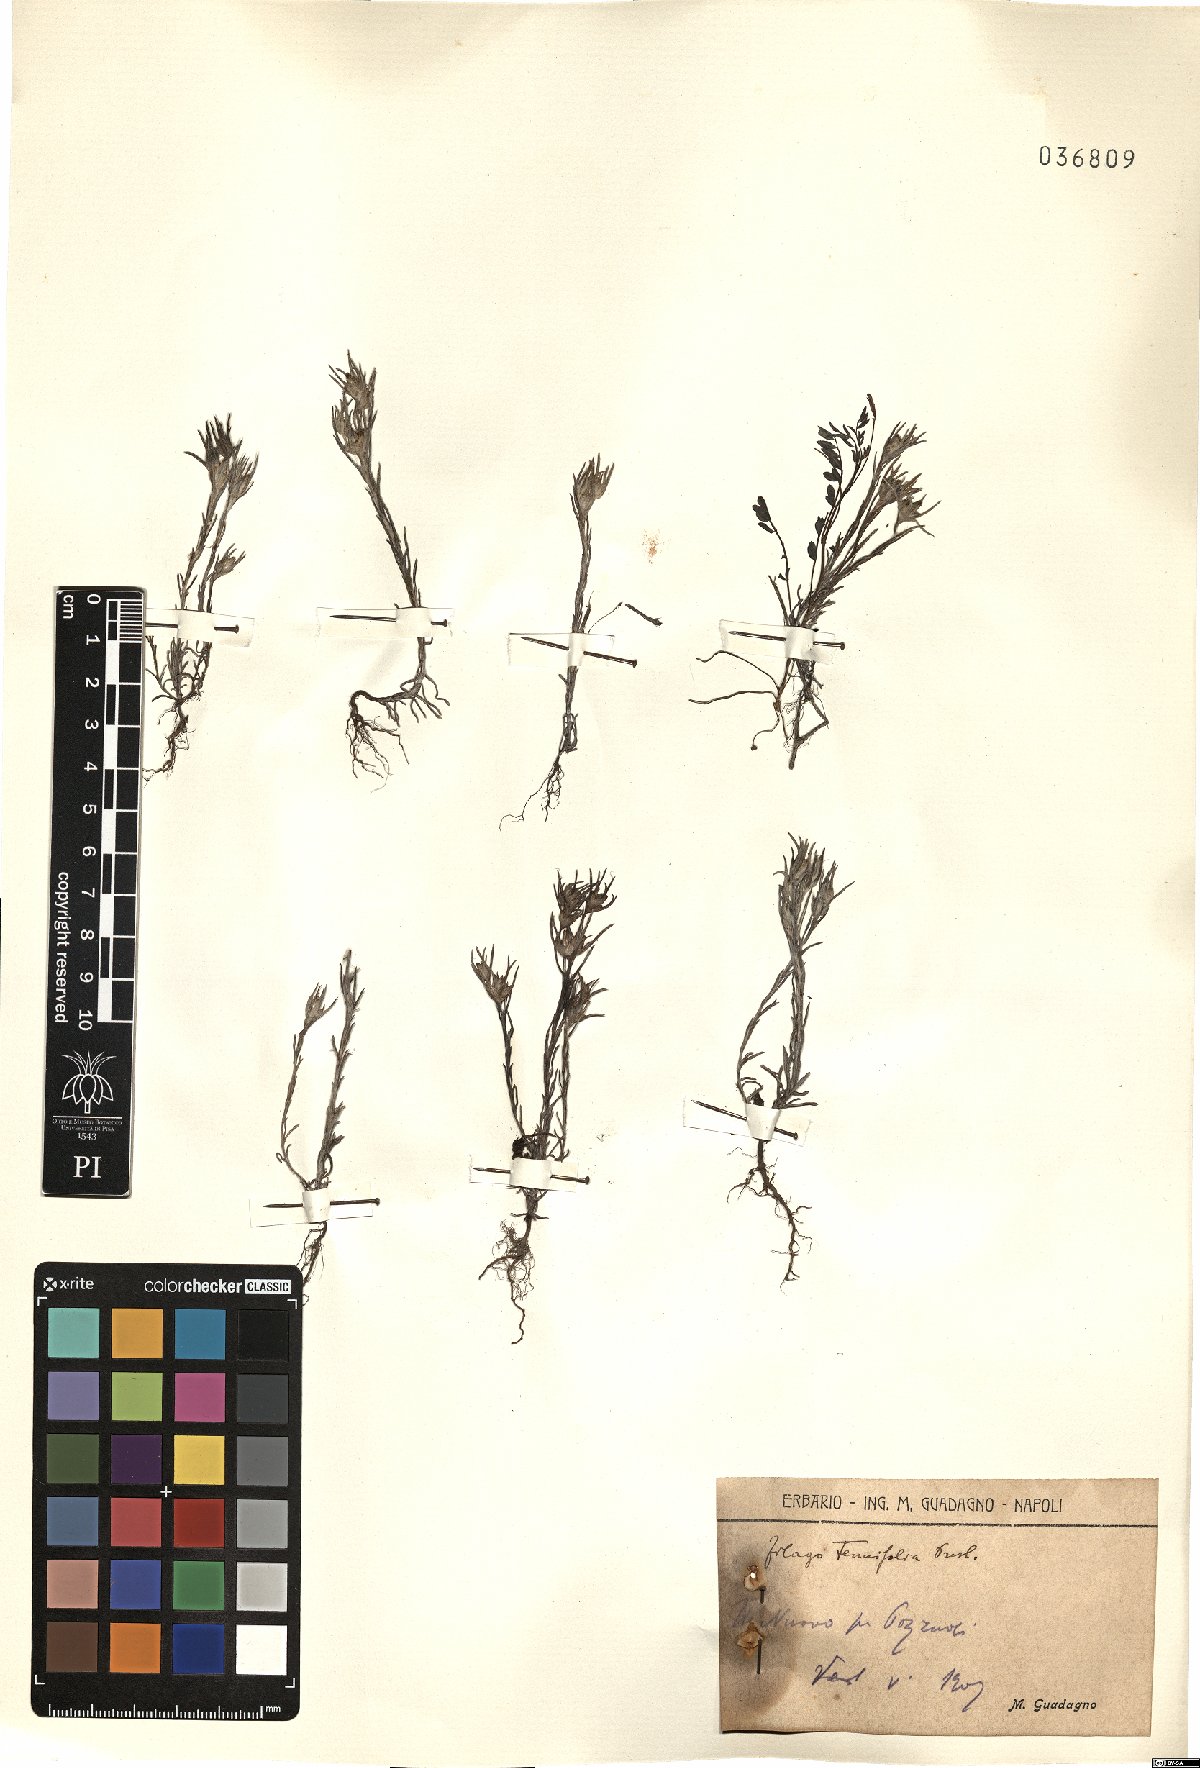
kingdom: Plantae
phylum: Tracheophyta
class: Magnoliopsida
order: Asterales
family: Asteraceae
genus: Logfia
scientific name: Logfia gallica
